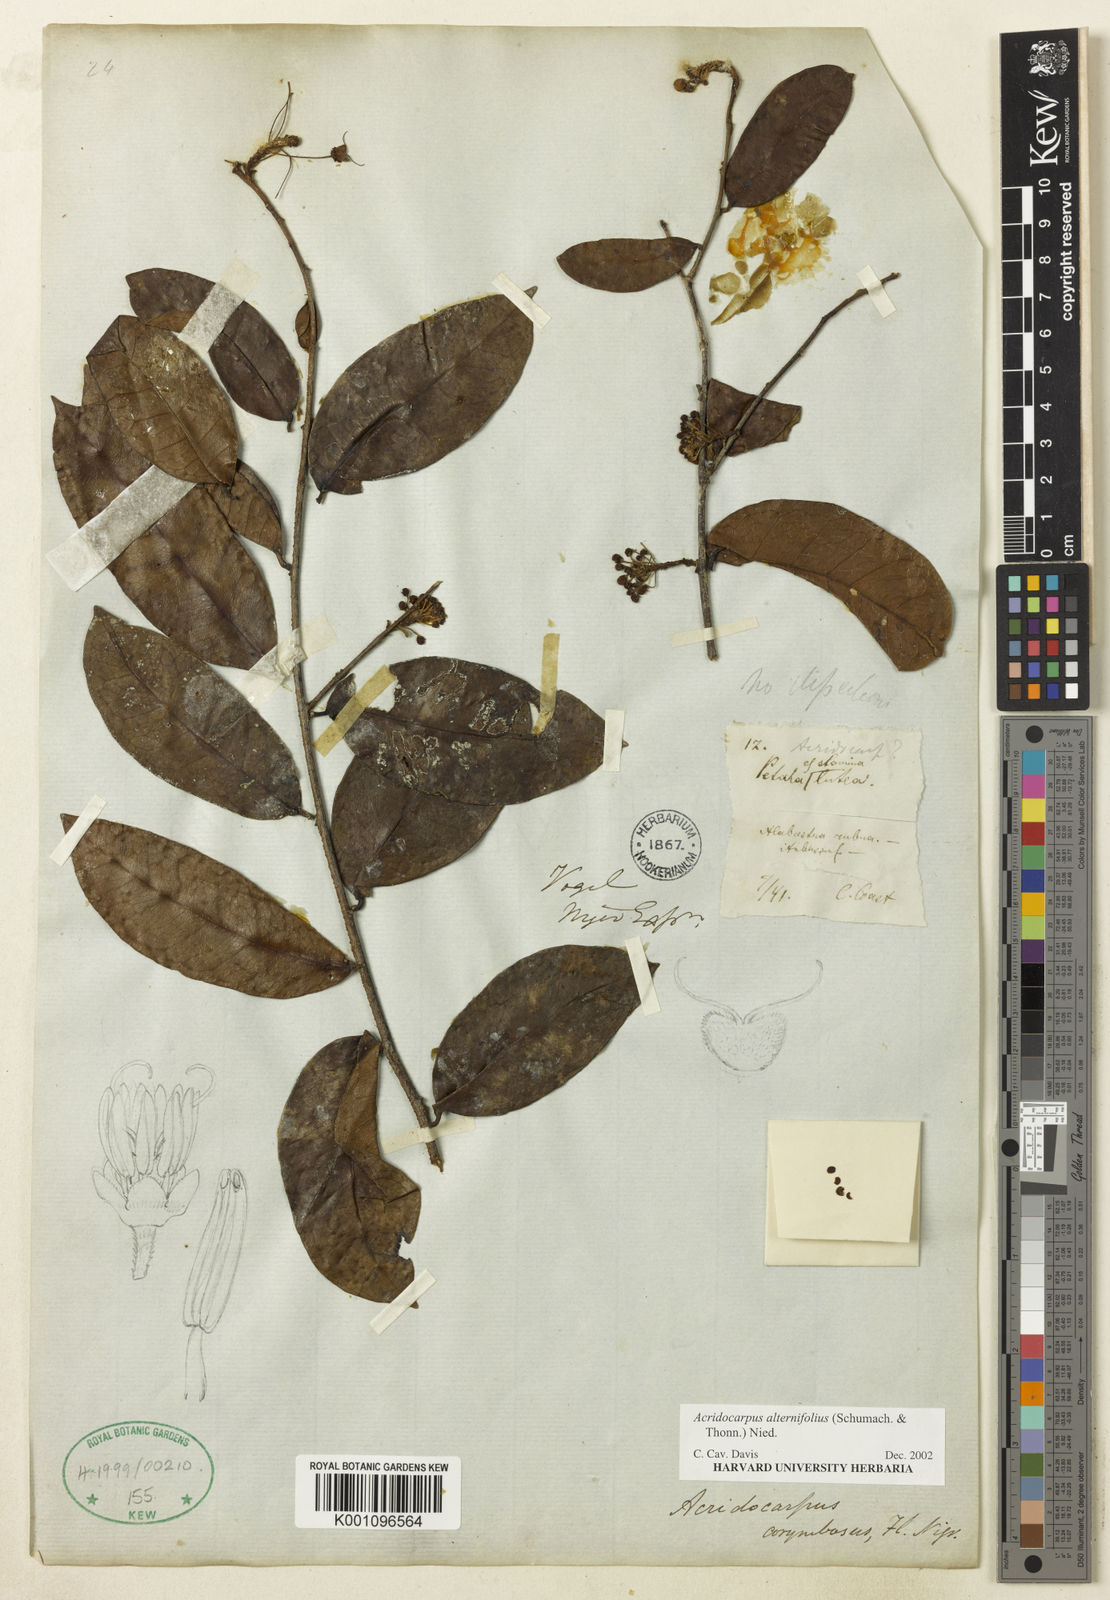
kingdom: Plantae
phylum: Tracheophyta
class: Magnoliopsida
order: Malpighiales
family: Malpighiaceae
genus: Acridocarpus
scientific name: Acridocarpus alternifolius
